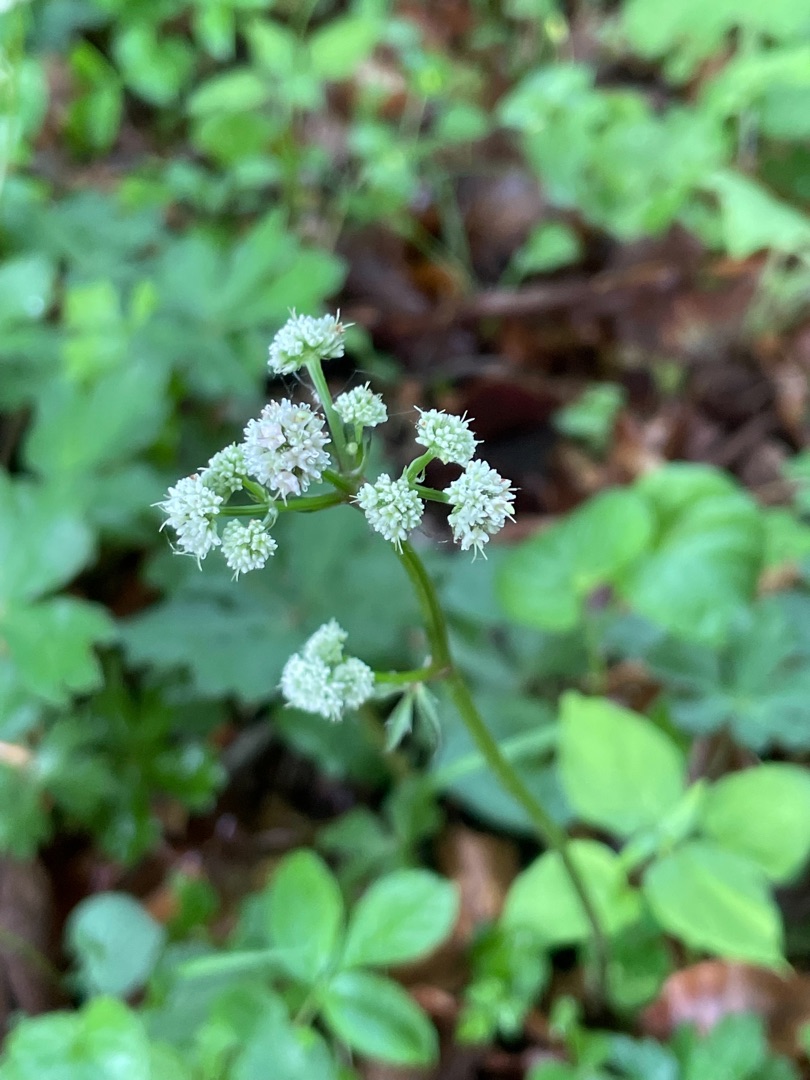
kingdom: Plantae
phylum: Tracheophyta
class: Magnoliopsida
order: Apiales
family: Apiaceae
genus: Sanicula
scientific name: Sanicula europaea
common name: Sanikel
